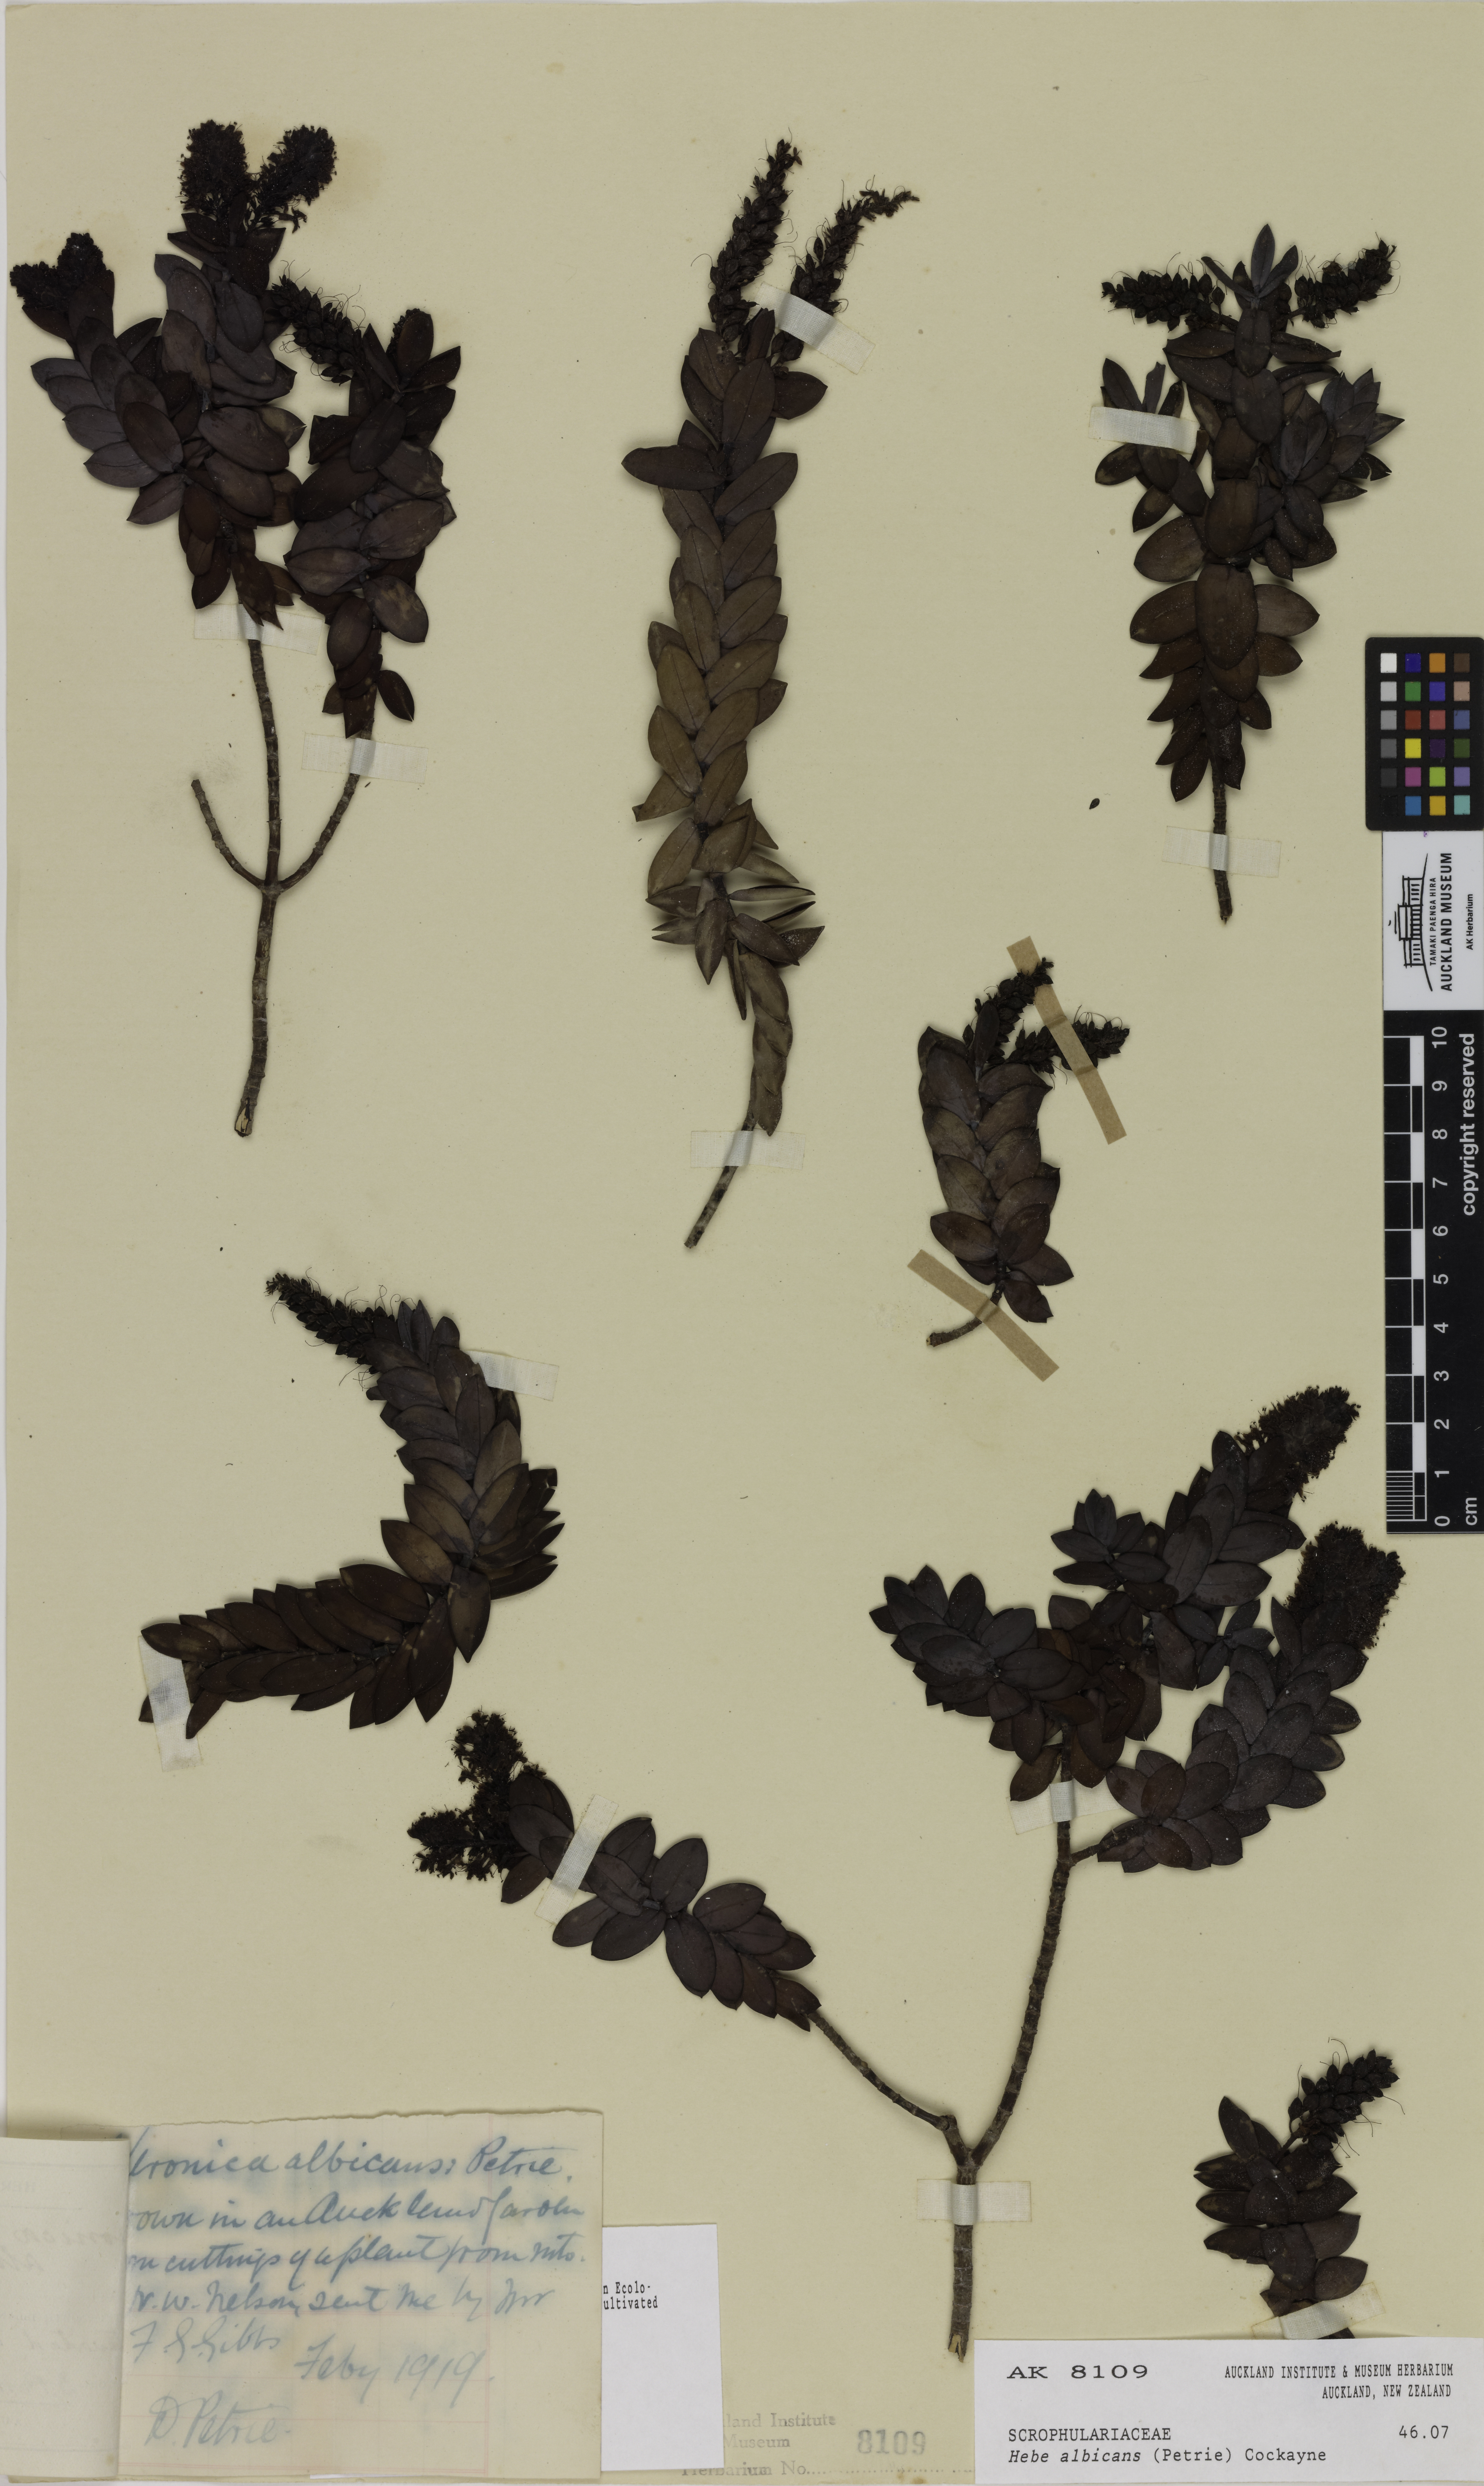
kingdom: Plantae
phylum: Tracheophyta
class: Magnoliopsida
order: Lamiales
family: Plantaginaceae
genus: Veronica
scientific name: Veronica albicans
